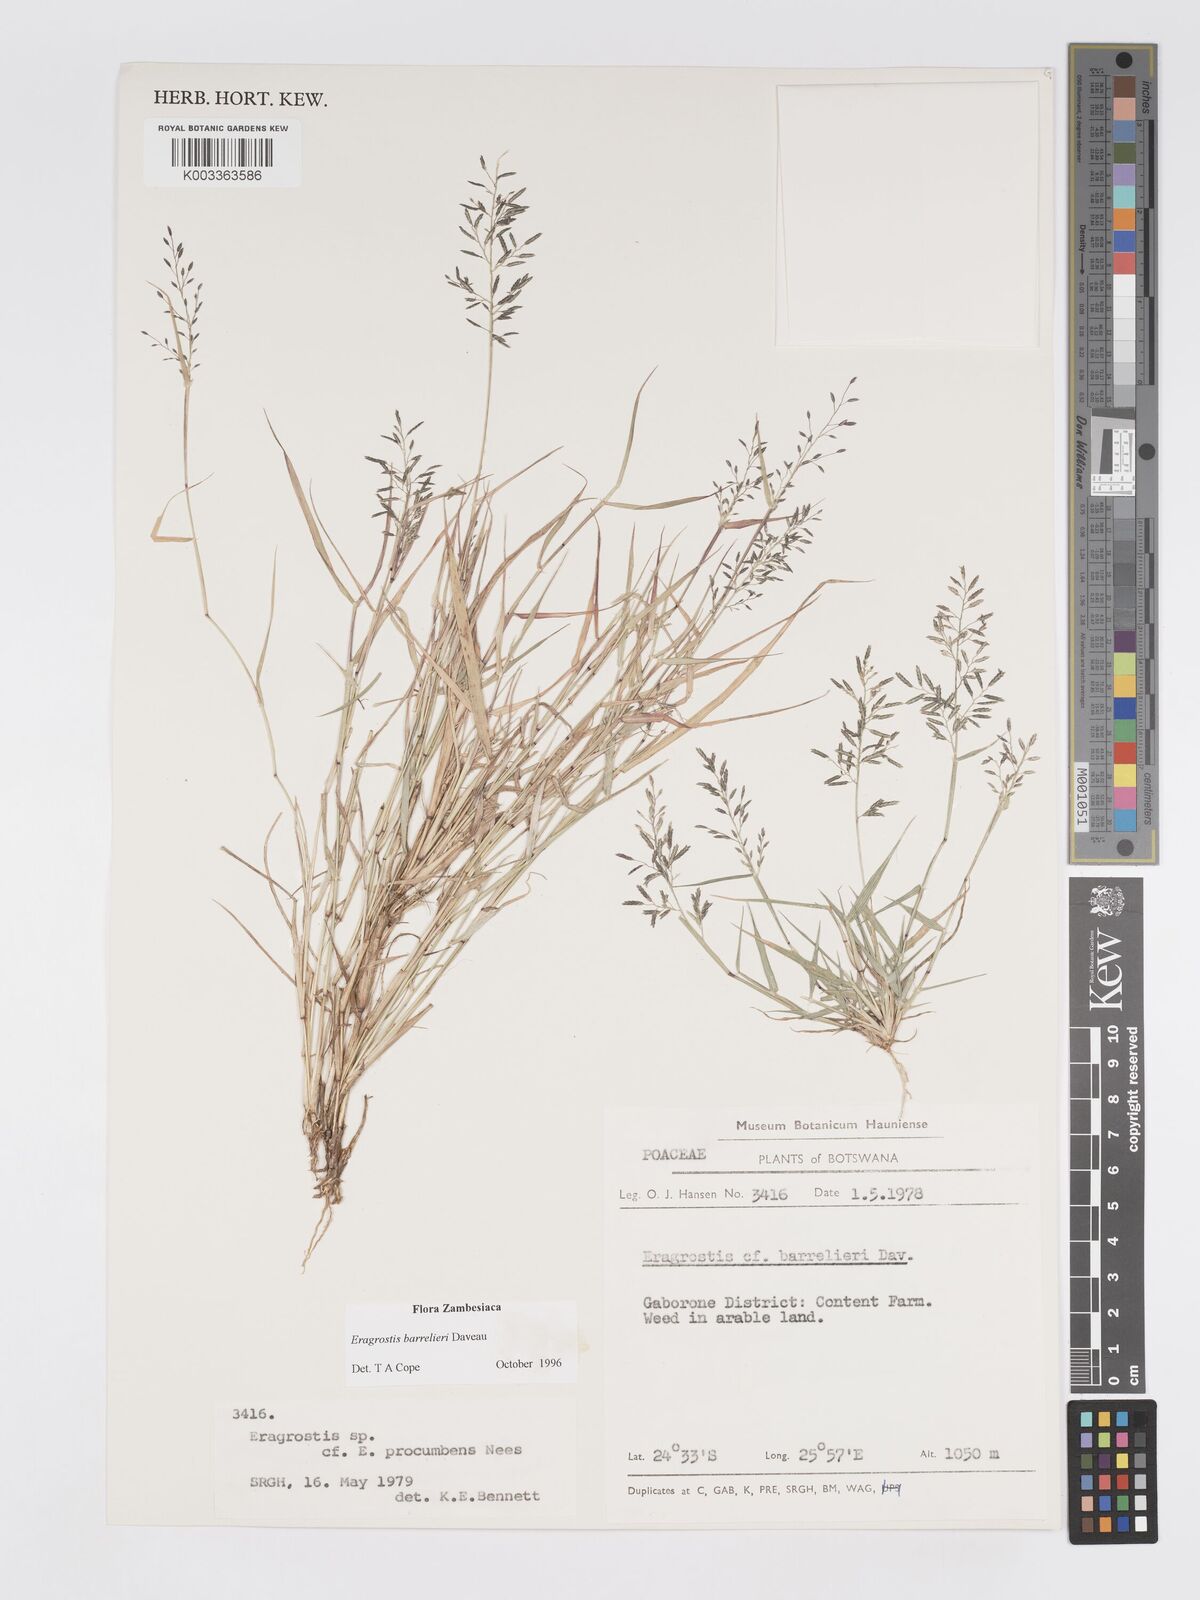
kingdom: Plantae
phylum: Tracheophyta
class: Liliopsida
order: Poales
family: Poaceae
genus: Eragrostis
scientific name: Eragrostis barrelieri
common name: Mediterranean lovegrass
